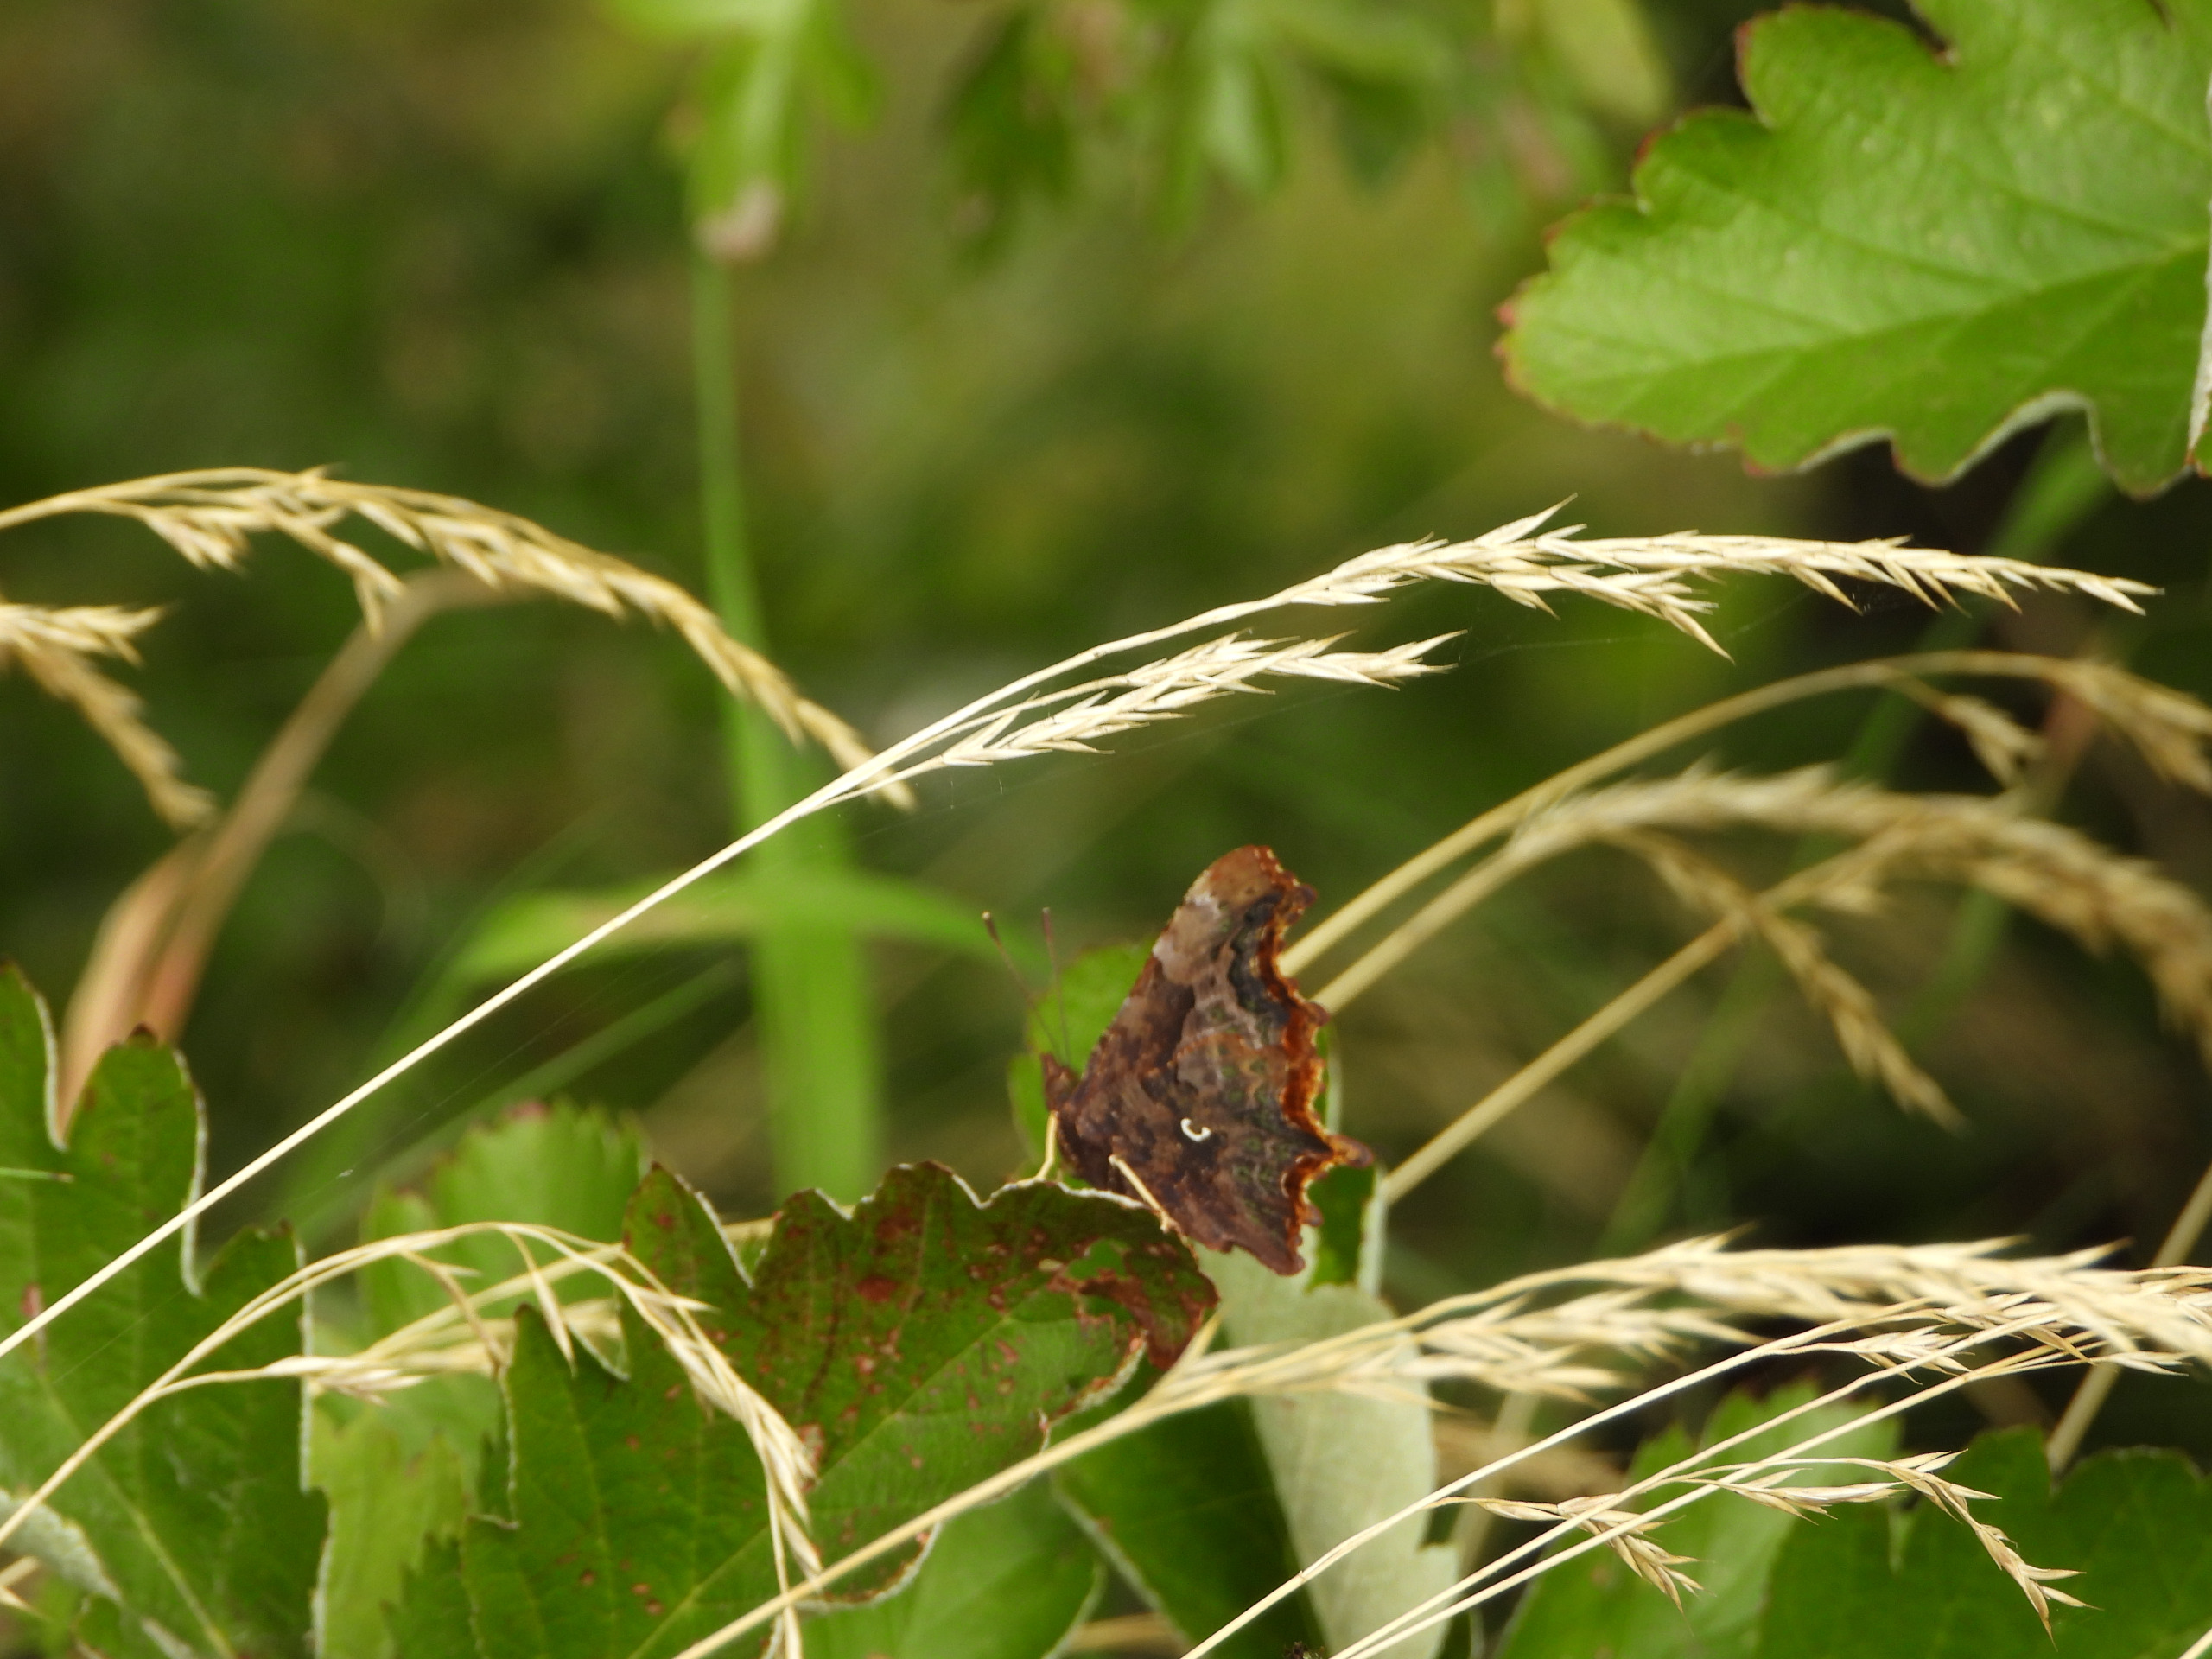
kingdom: Animalia
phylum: Arthropoda
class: Insecta
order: Lepidoptera
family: Nymphalidae
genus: Polygonia
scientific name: Polygonia c-album
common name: Det hvide C
